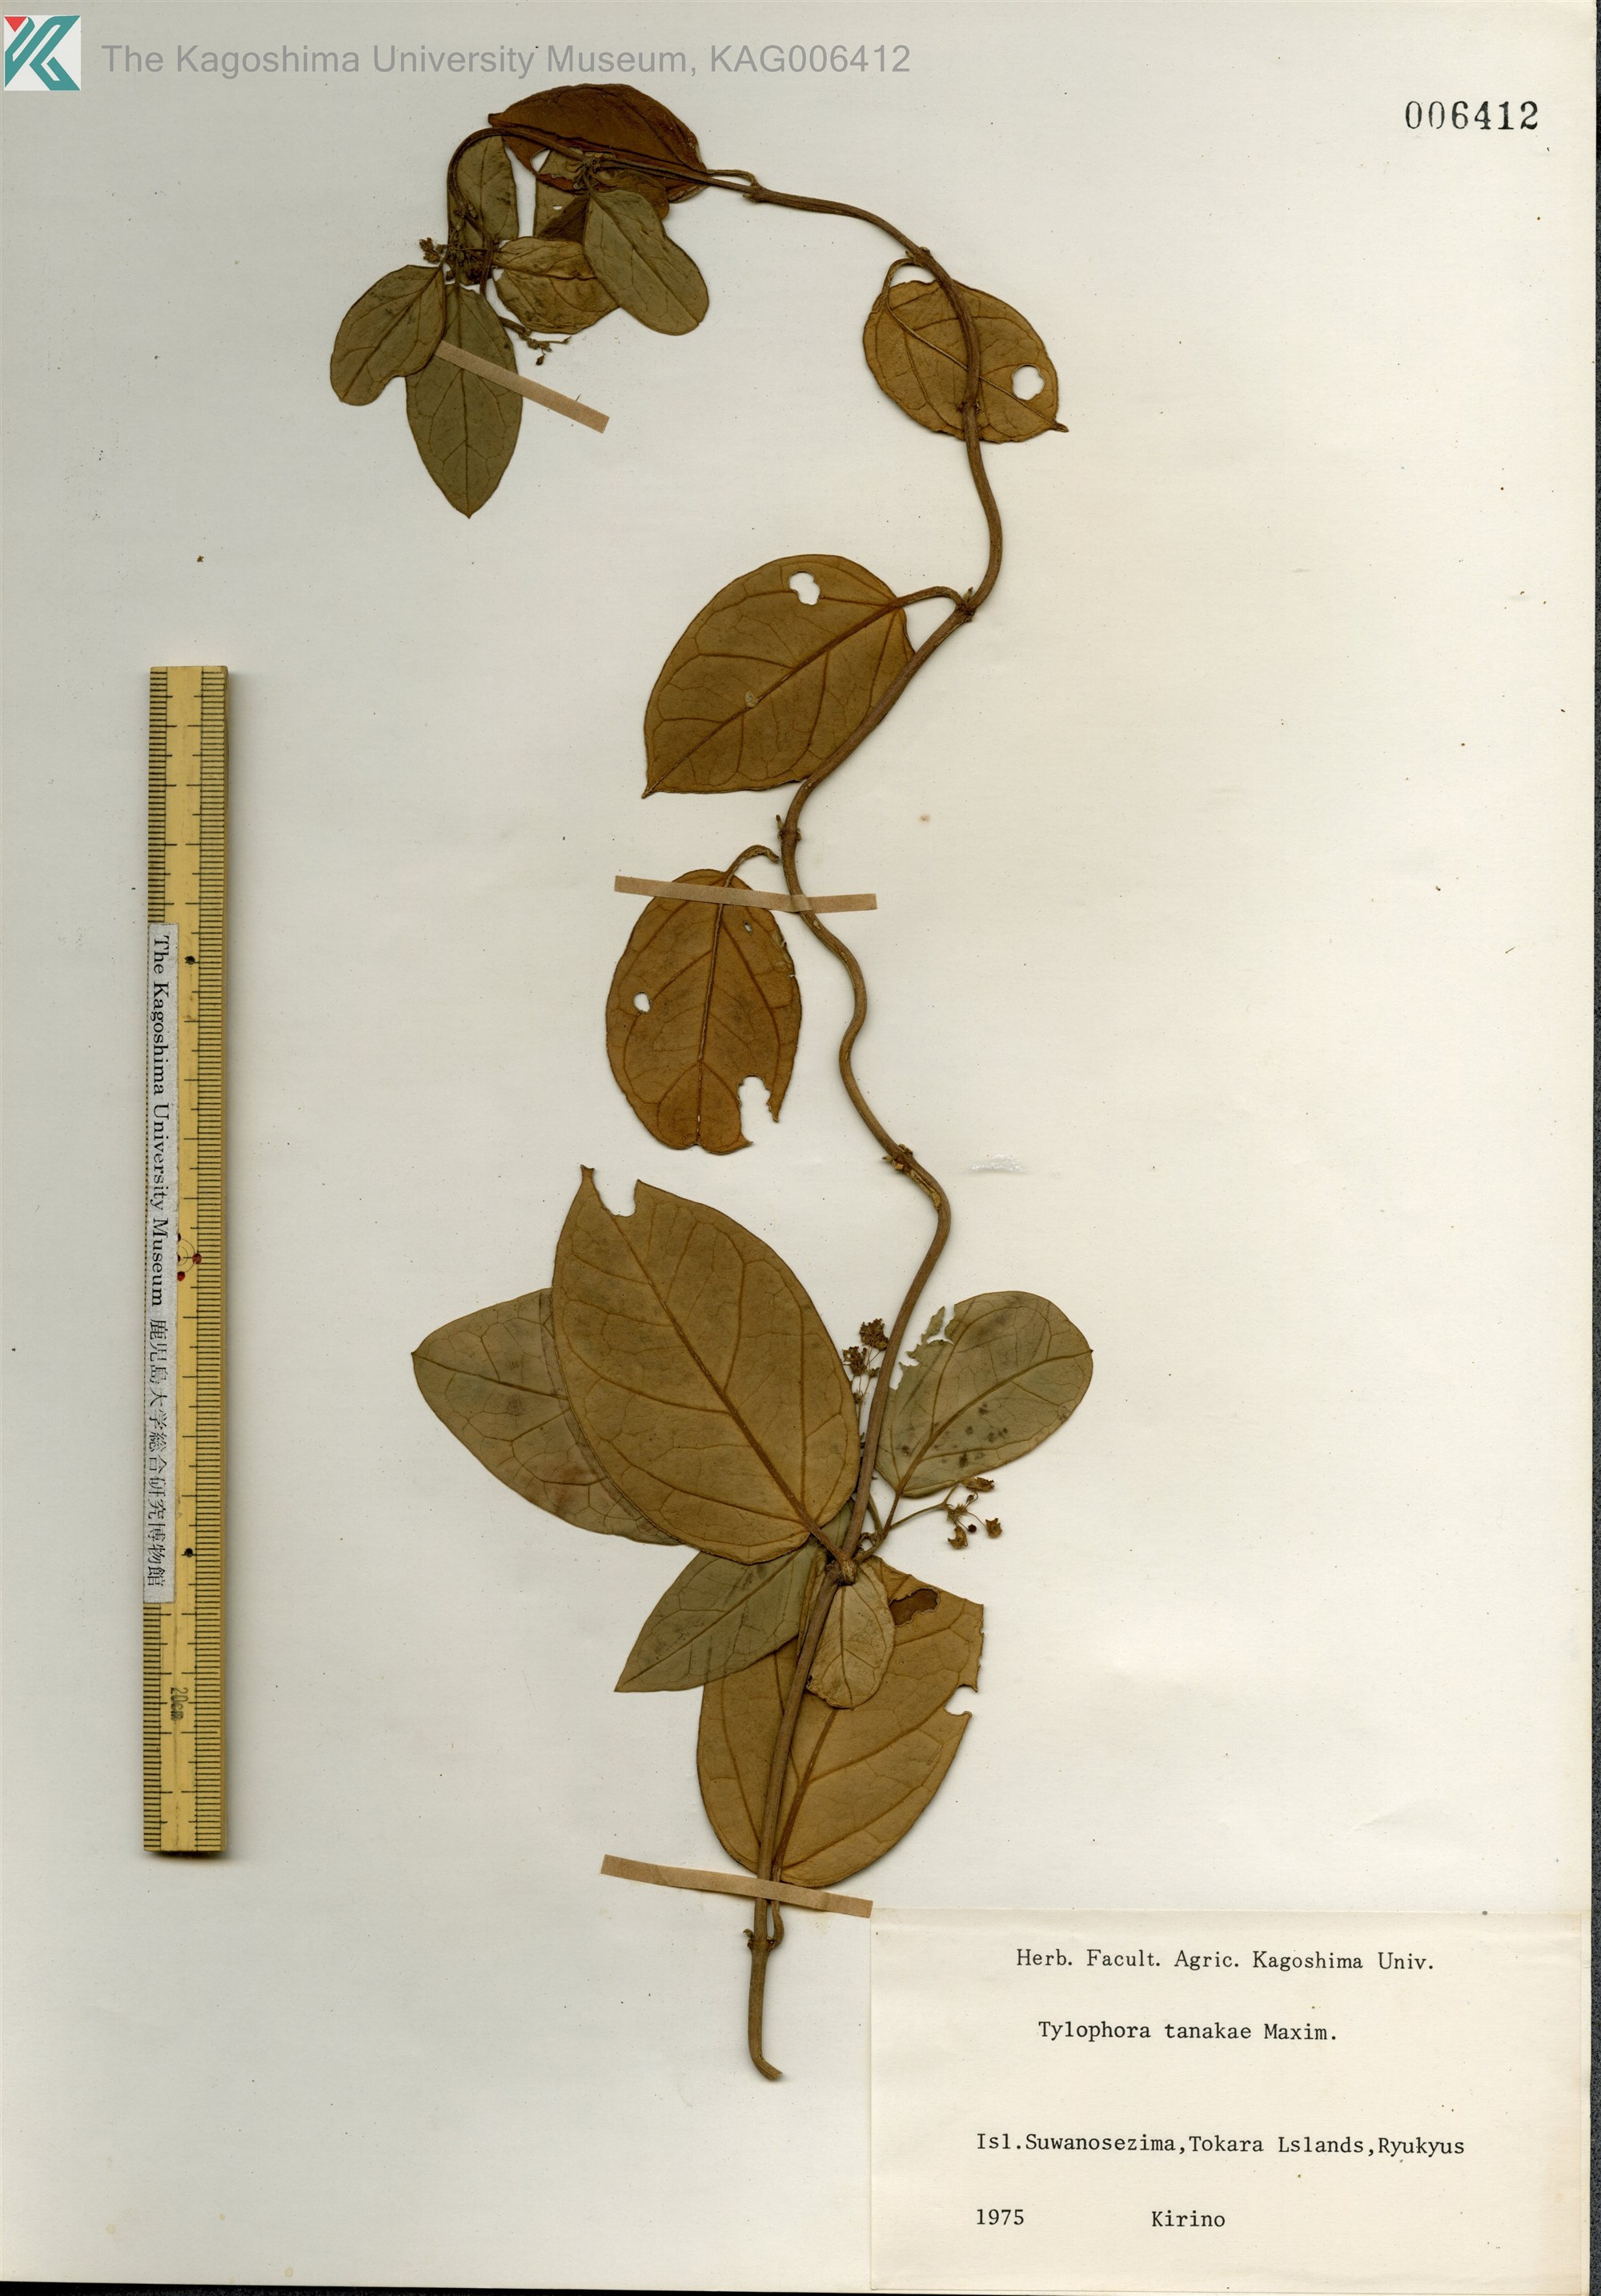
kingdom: Plantae
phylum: Tracheophyta
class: Magnoliopsida
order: Gentianales
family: Apocynaceae
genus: Vincetoxicum
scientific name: Vincetoxicum Tylophora tanakae
